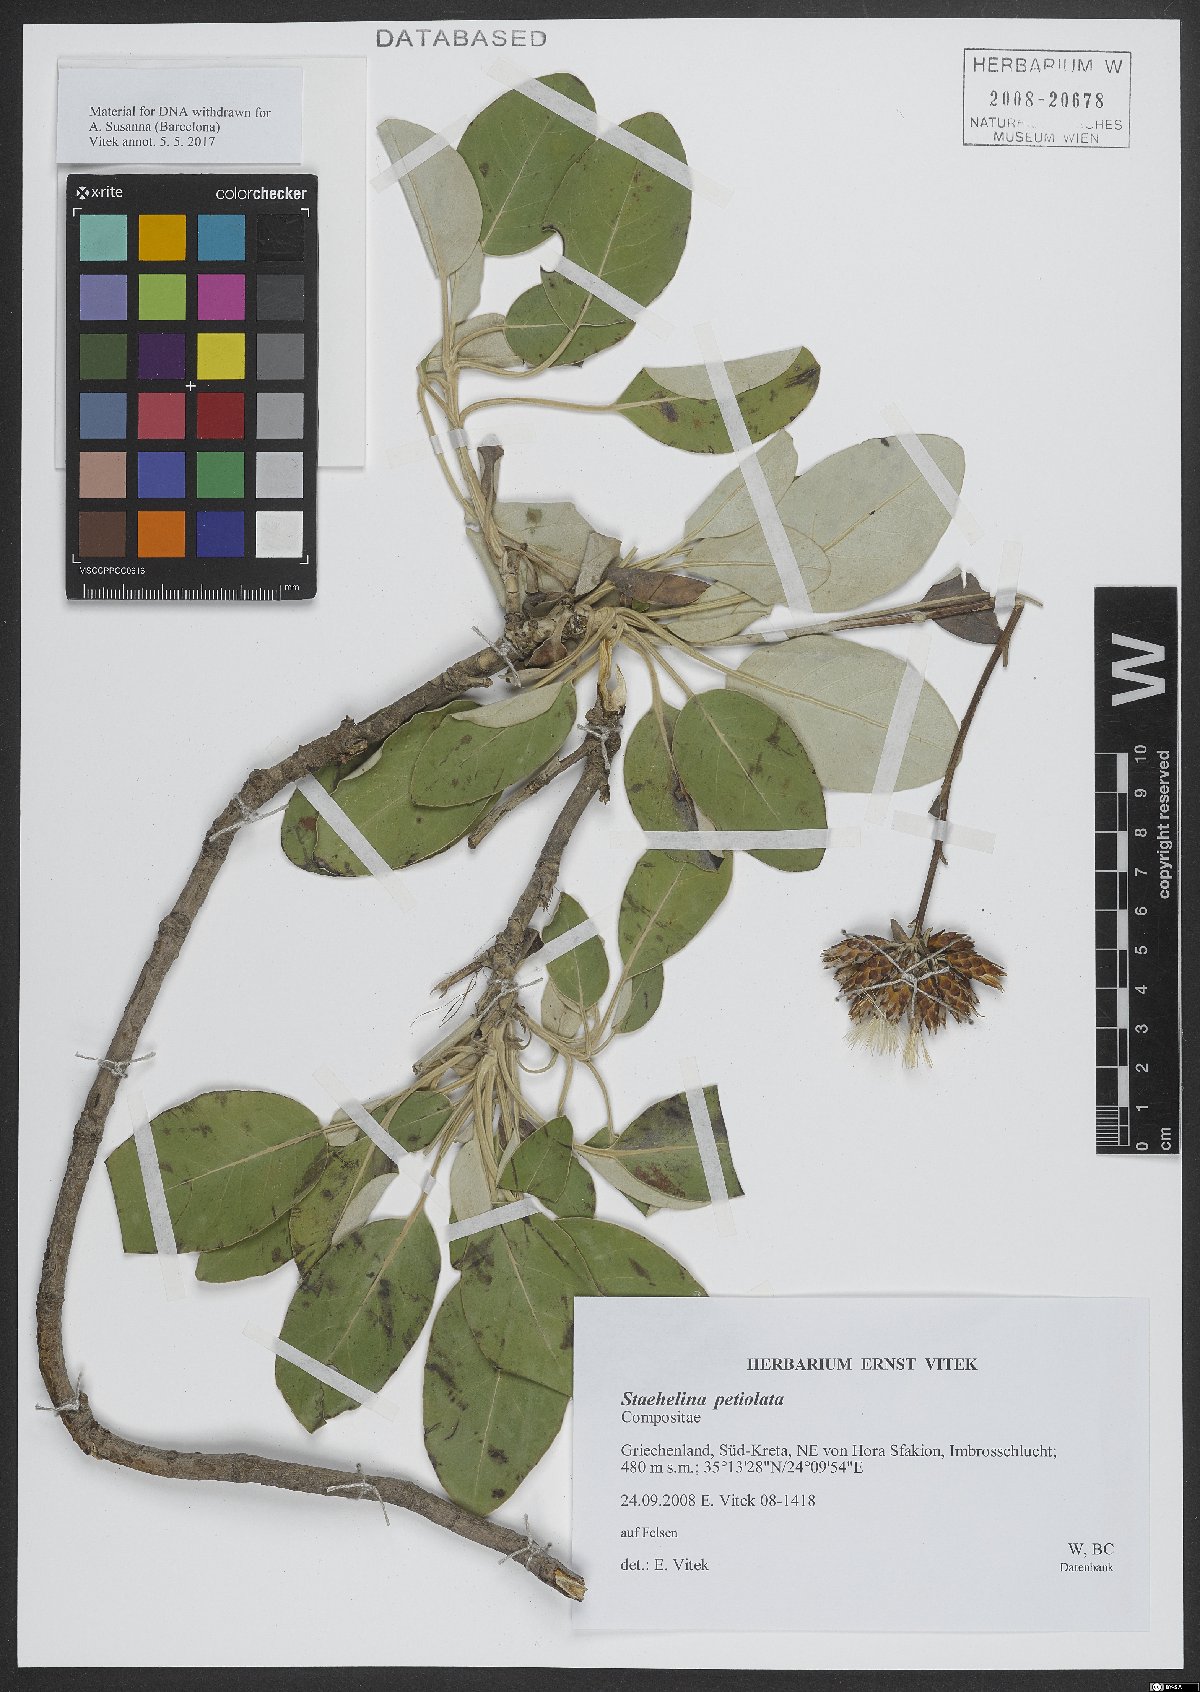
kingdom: Plantae
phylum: Tracheophyta
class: Magnoliopsida
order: Asterales
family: Asteraceae
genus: Staehelina
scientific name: Staehelina petiolata
